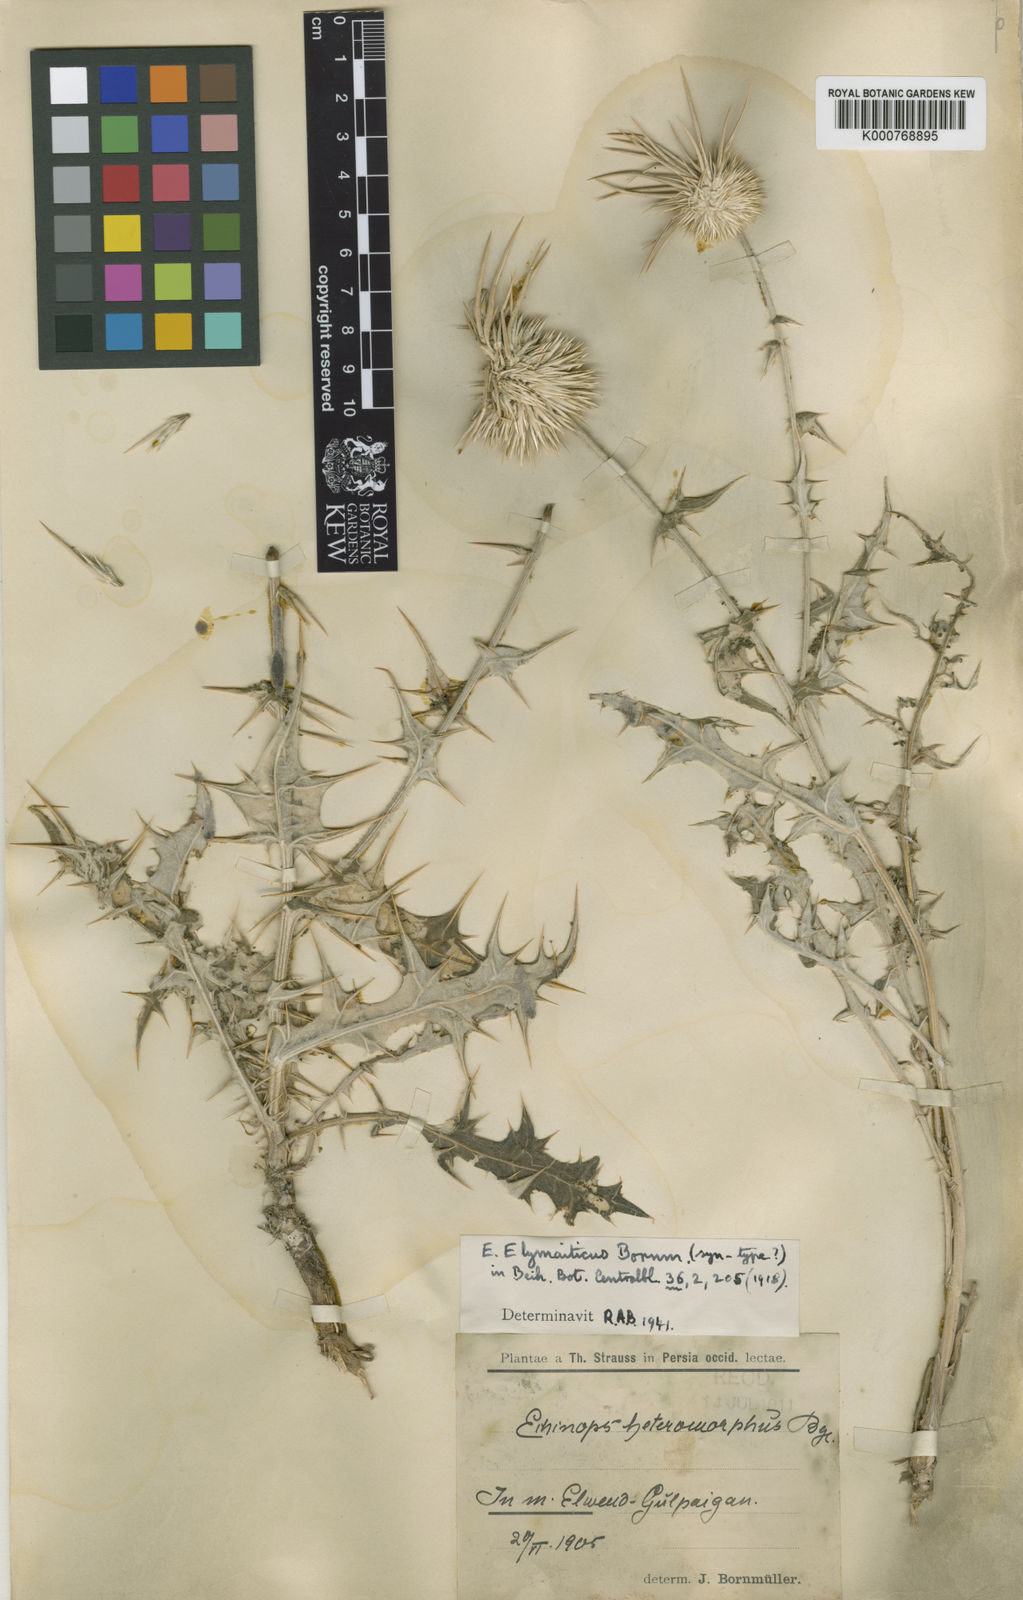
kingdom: Plantae
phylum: Tracheophyta
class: Magnoliopsida
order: Asterales
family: Asteraceae
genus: Echinops
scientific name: Echinops elymaiticus
